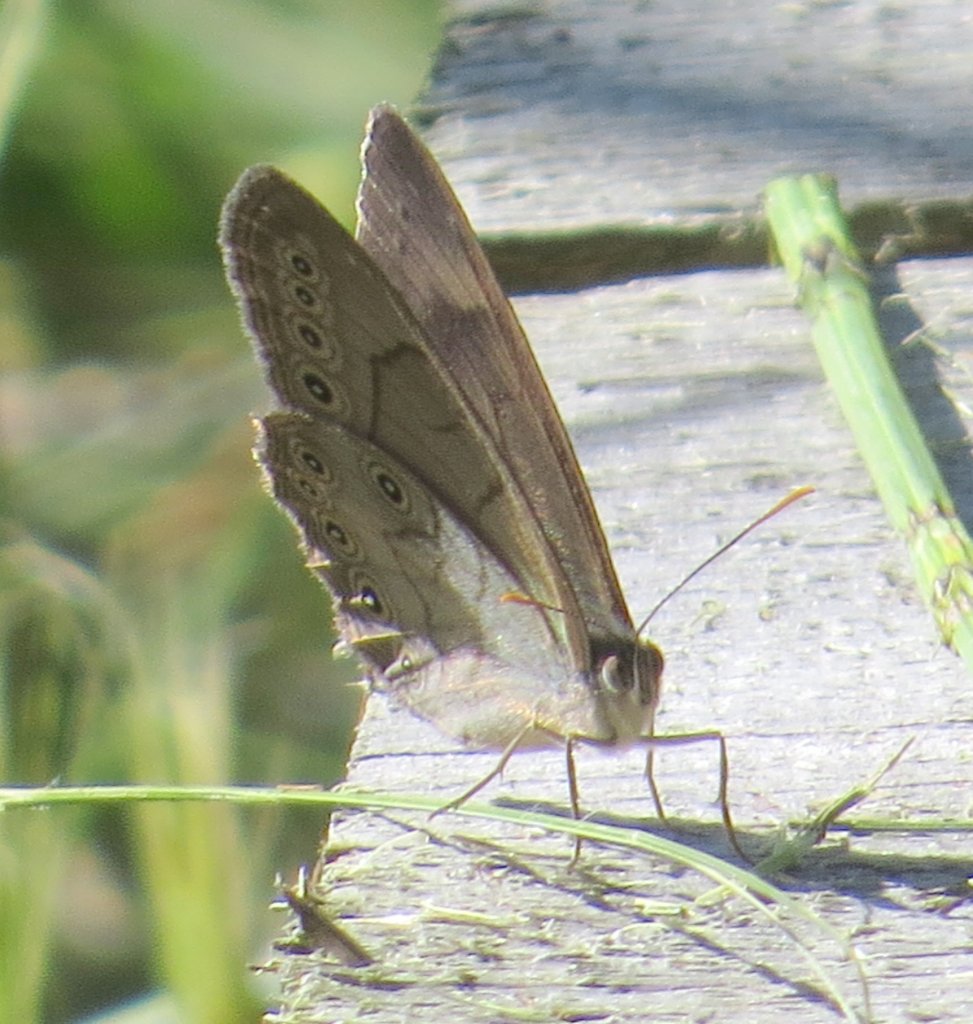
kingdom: Animalia
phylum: Arthropoda
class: Insecta
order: Lepidoptera
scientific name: Lepidoptera
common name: Butterflies
